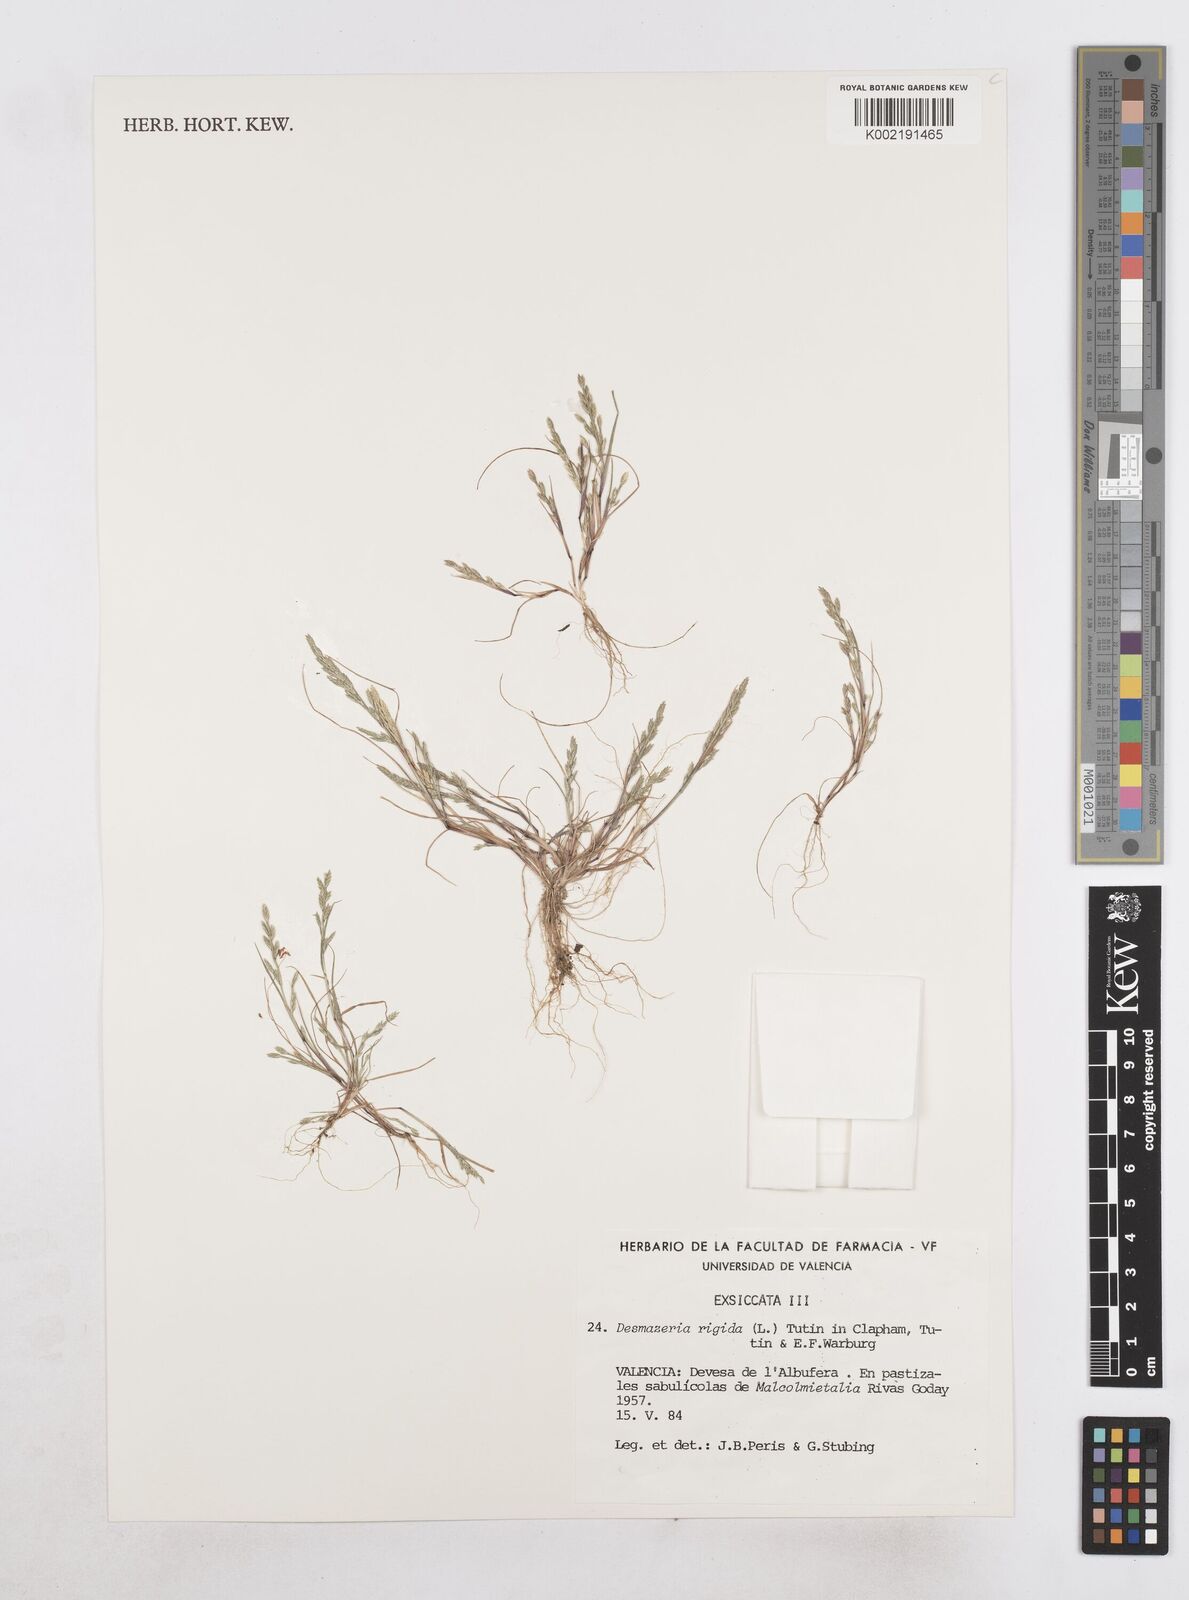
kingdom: Plantae
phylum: Tracheophyta
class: Liliopsida
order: Poales
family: Poaceae
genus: Catapodium
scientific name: Catapodium rigidum
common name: Fern-grass
